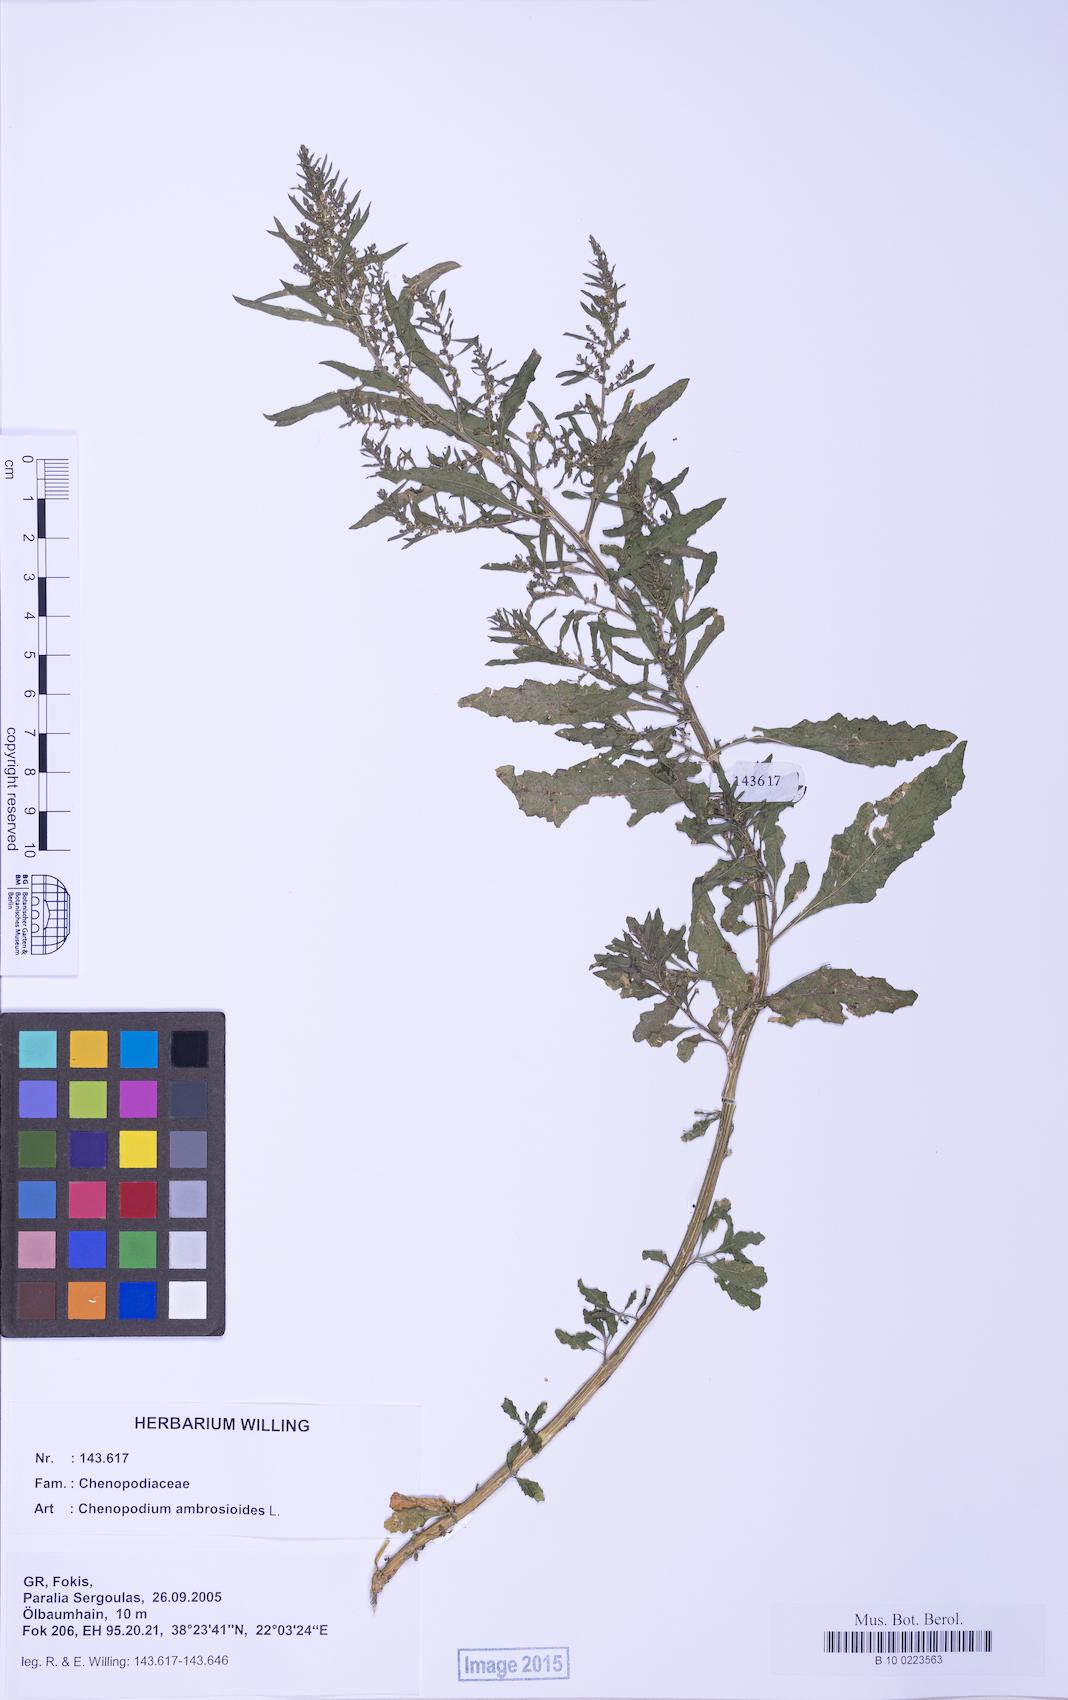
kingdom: Plantae
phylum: Tracheophyta
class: Magnoliopsida
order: Caryophyllales
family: Amaranthaceae
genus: Dysphania
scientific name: Dysphania ambrosioides
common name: Wormseed
